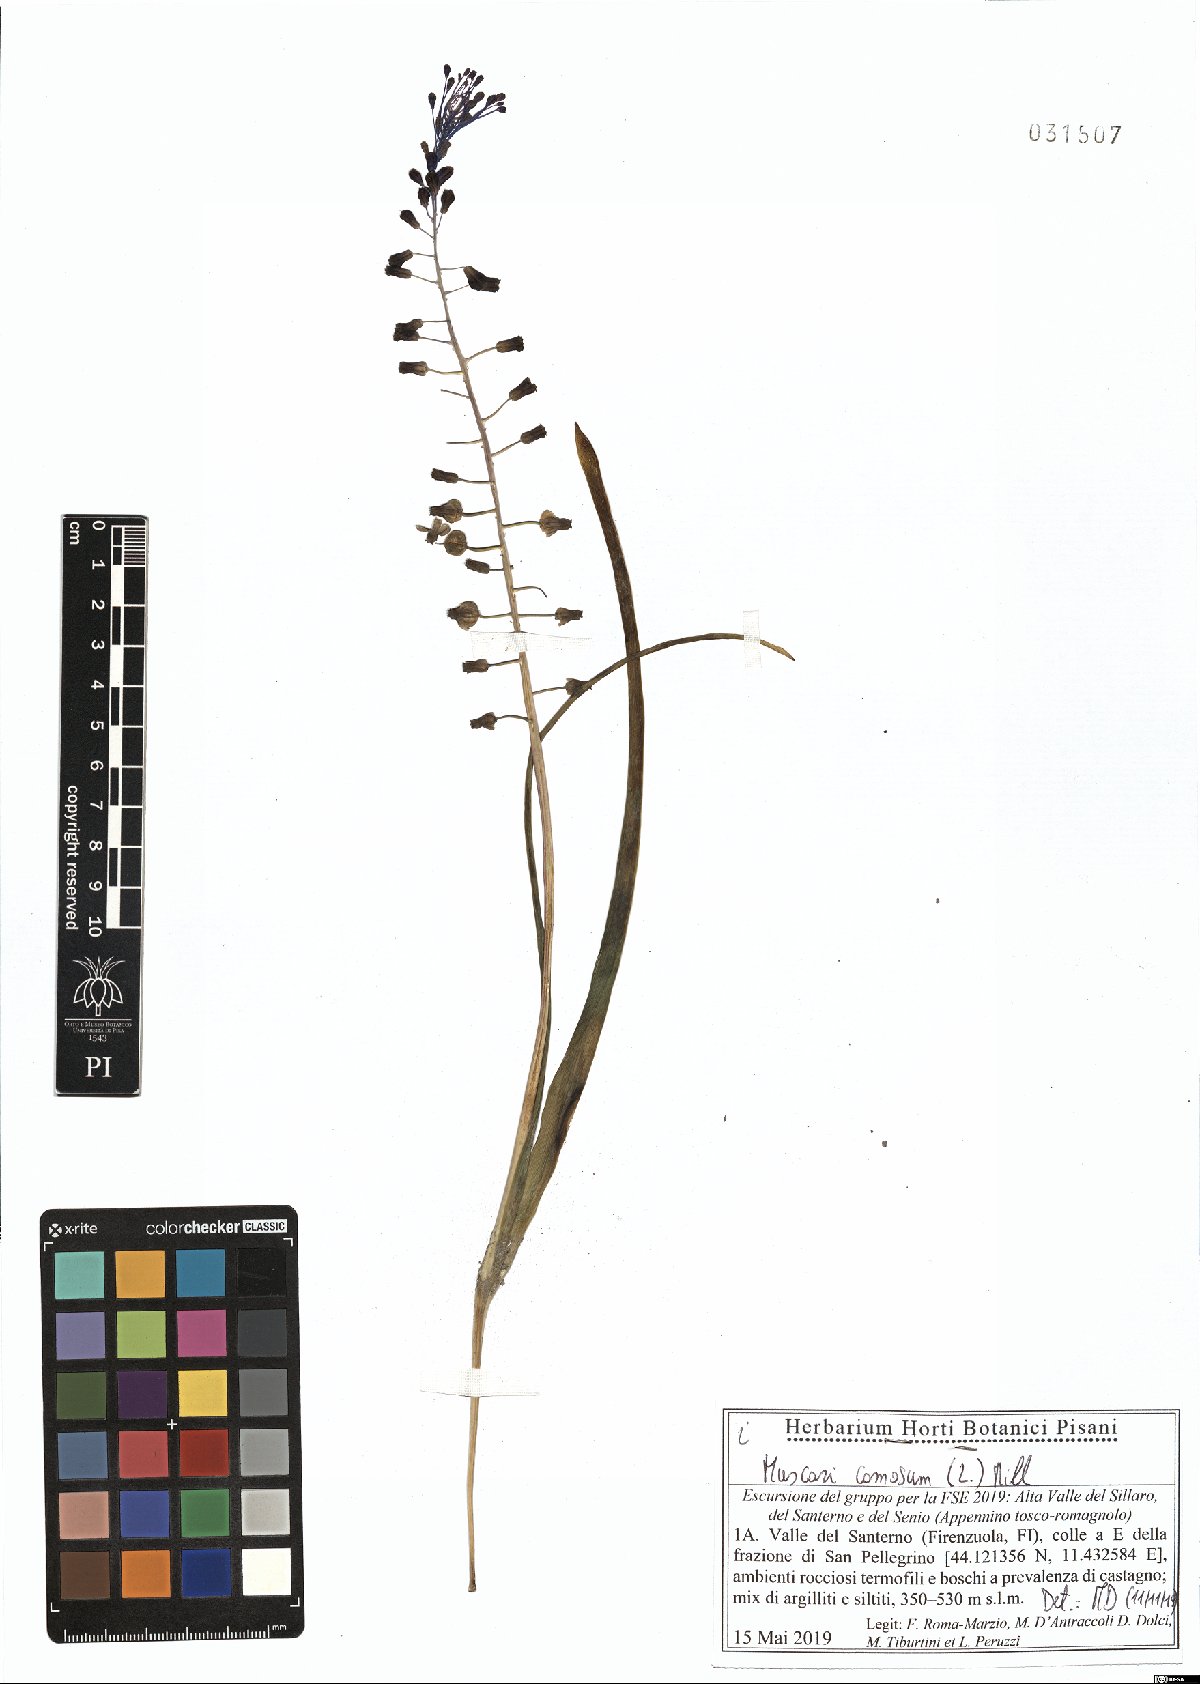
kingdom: Plantae
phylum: Tracheophyta
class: Liliopsida
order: Asparagales
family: Asparagaceae
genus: Muscari
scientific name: Muscari comosum
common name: Tassel hyacinth
